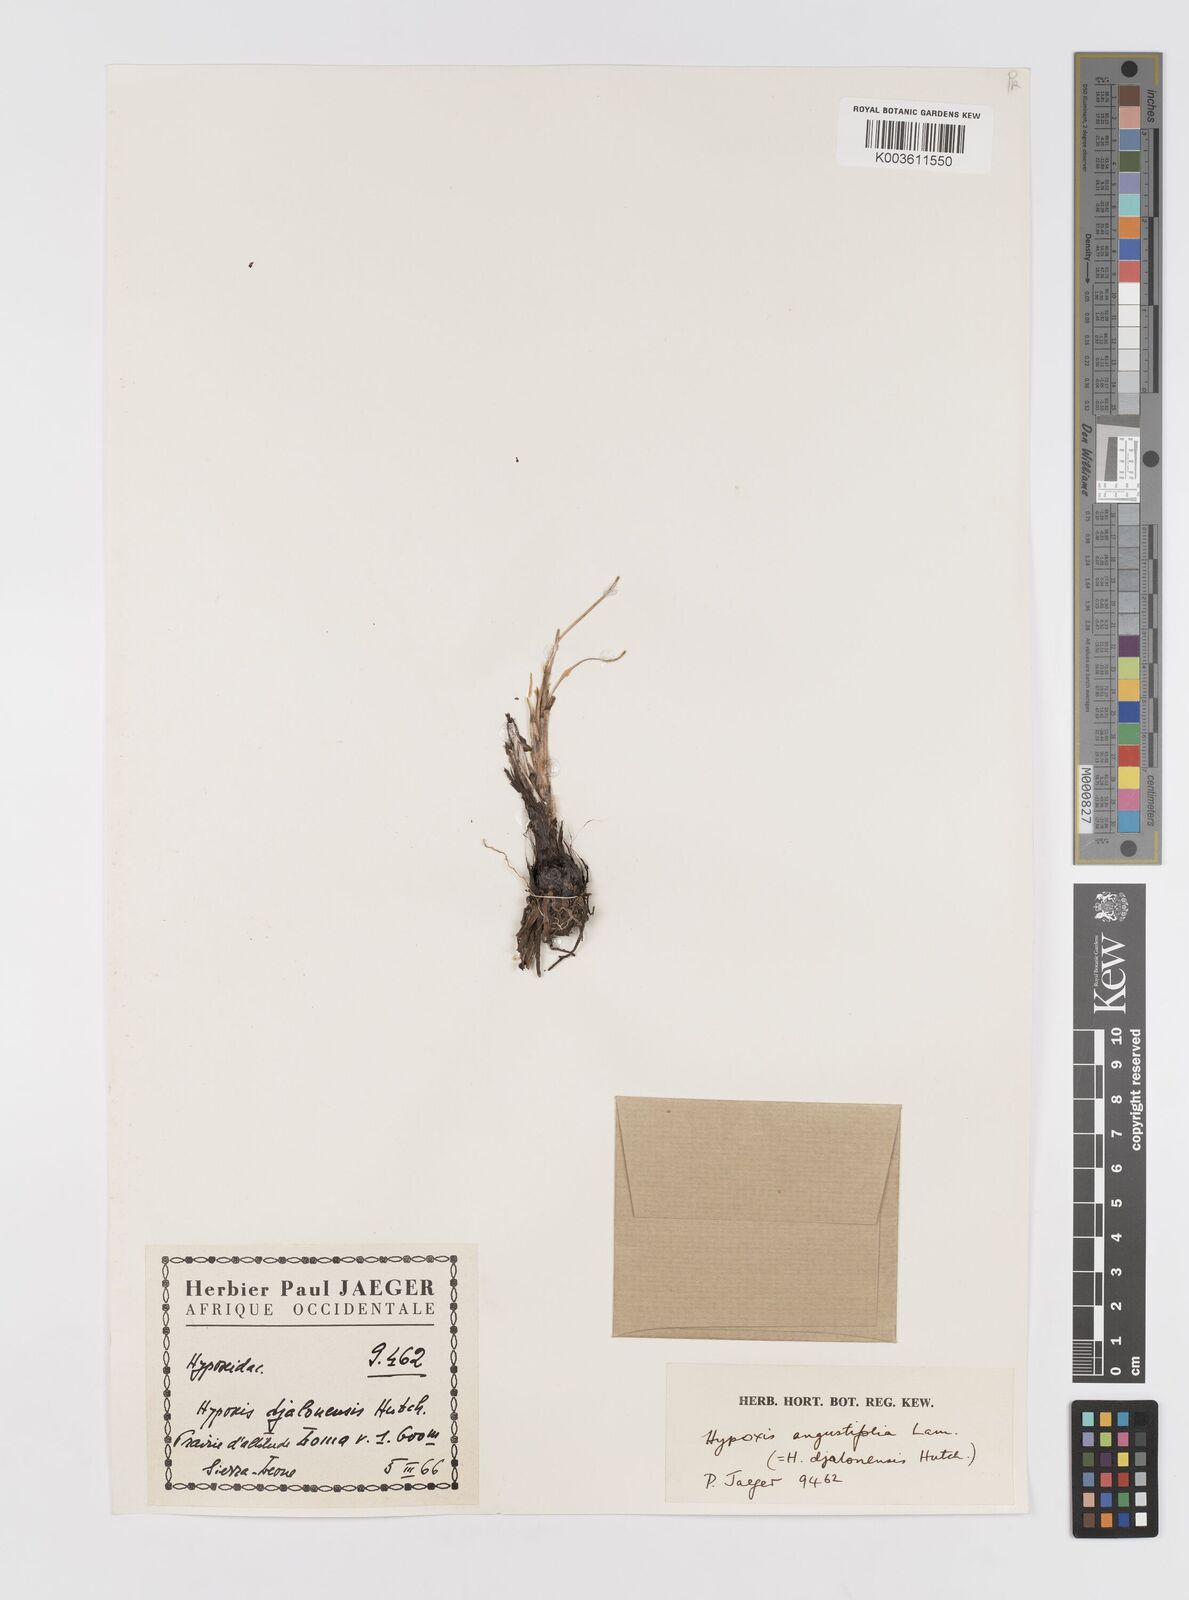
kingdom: Plantae
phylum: Tracheophyta
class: Liliopsida
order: Asparagales
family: Hypoxidaceae
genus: Hypoxis
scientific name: Hypoxis angustifolia
